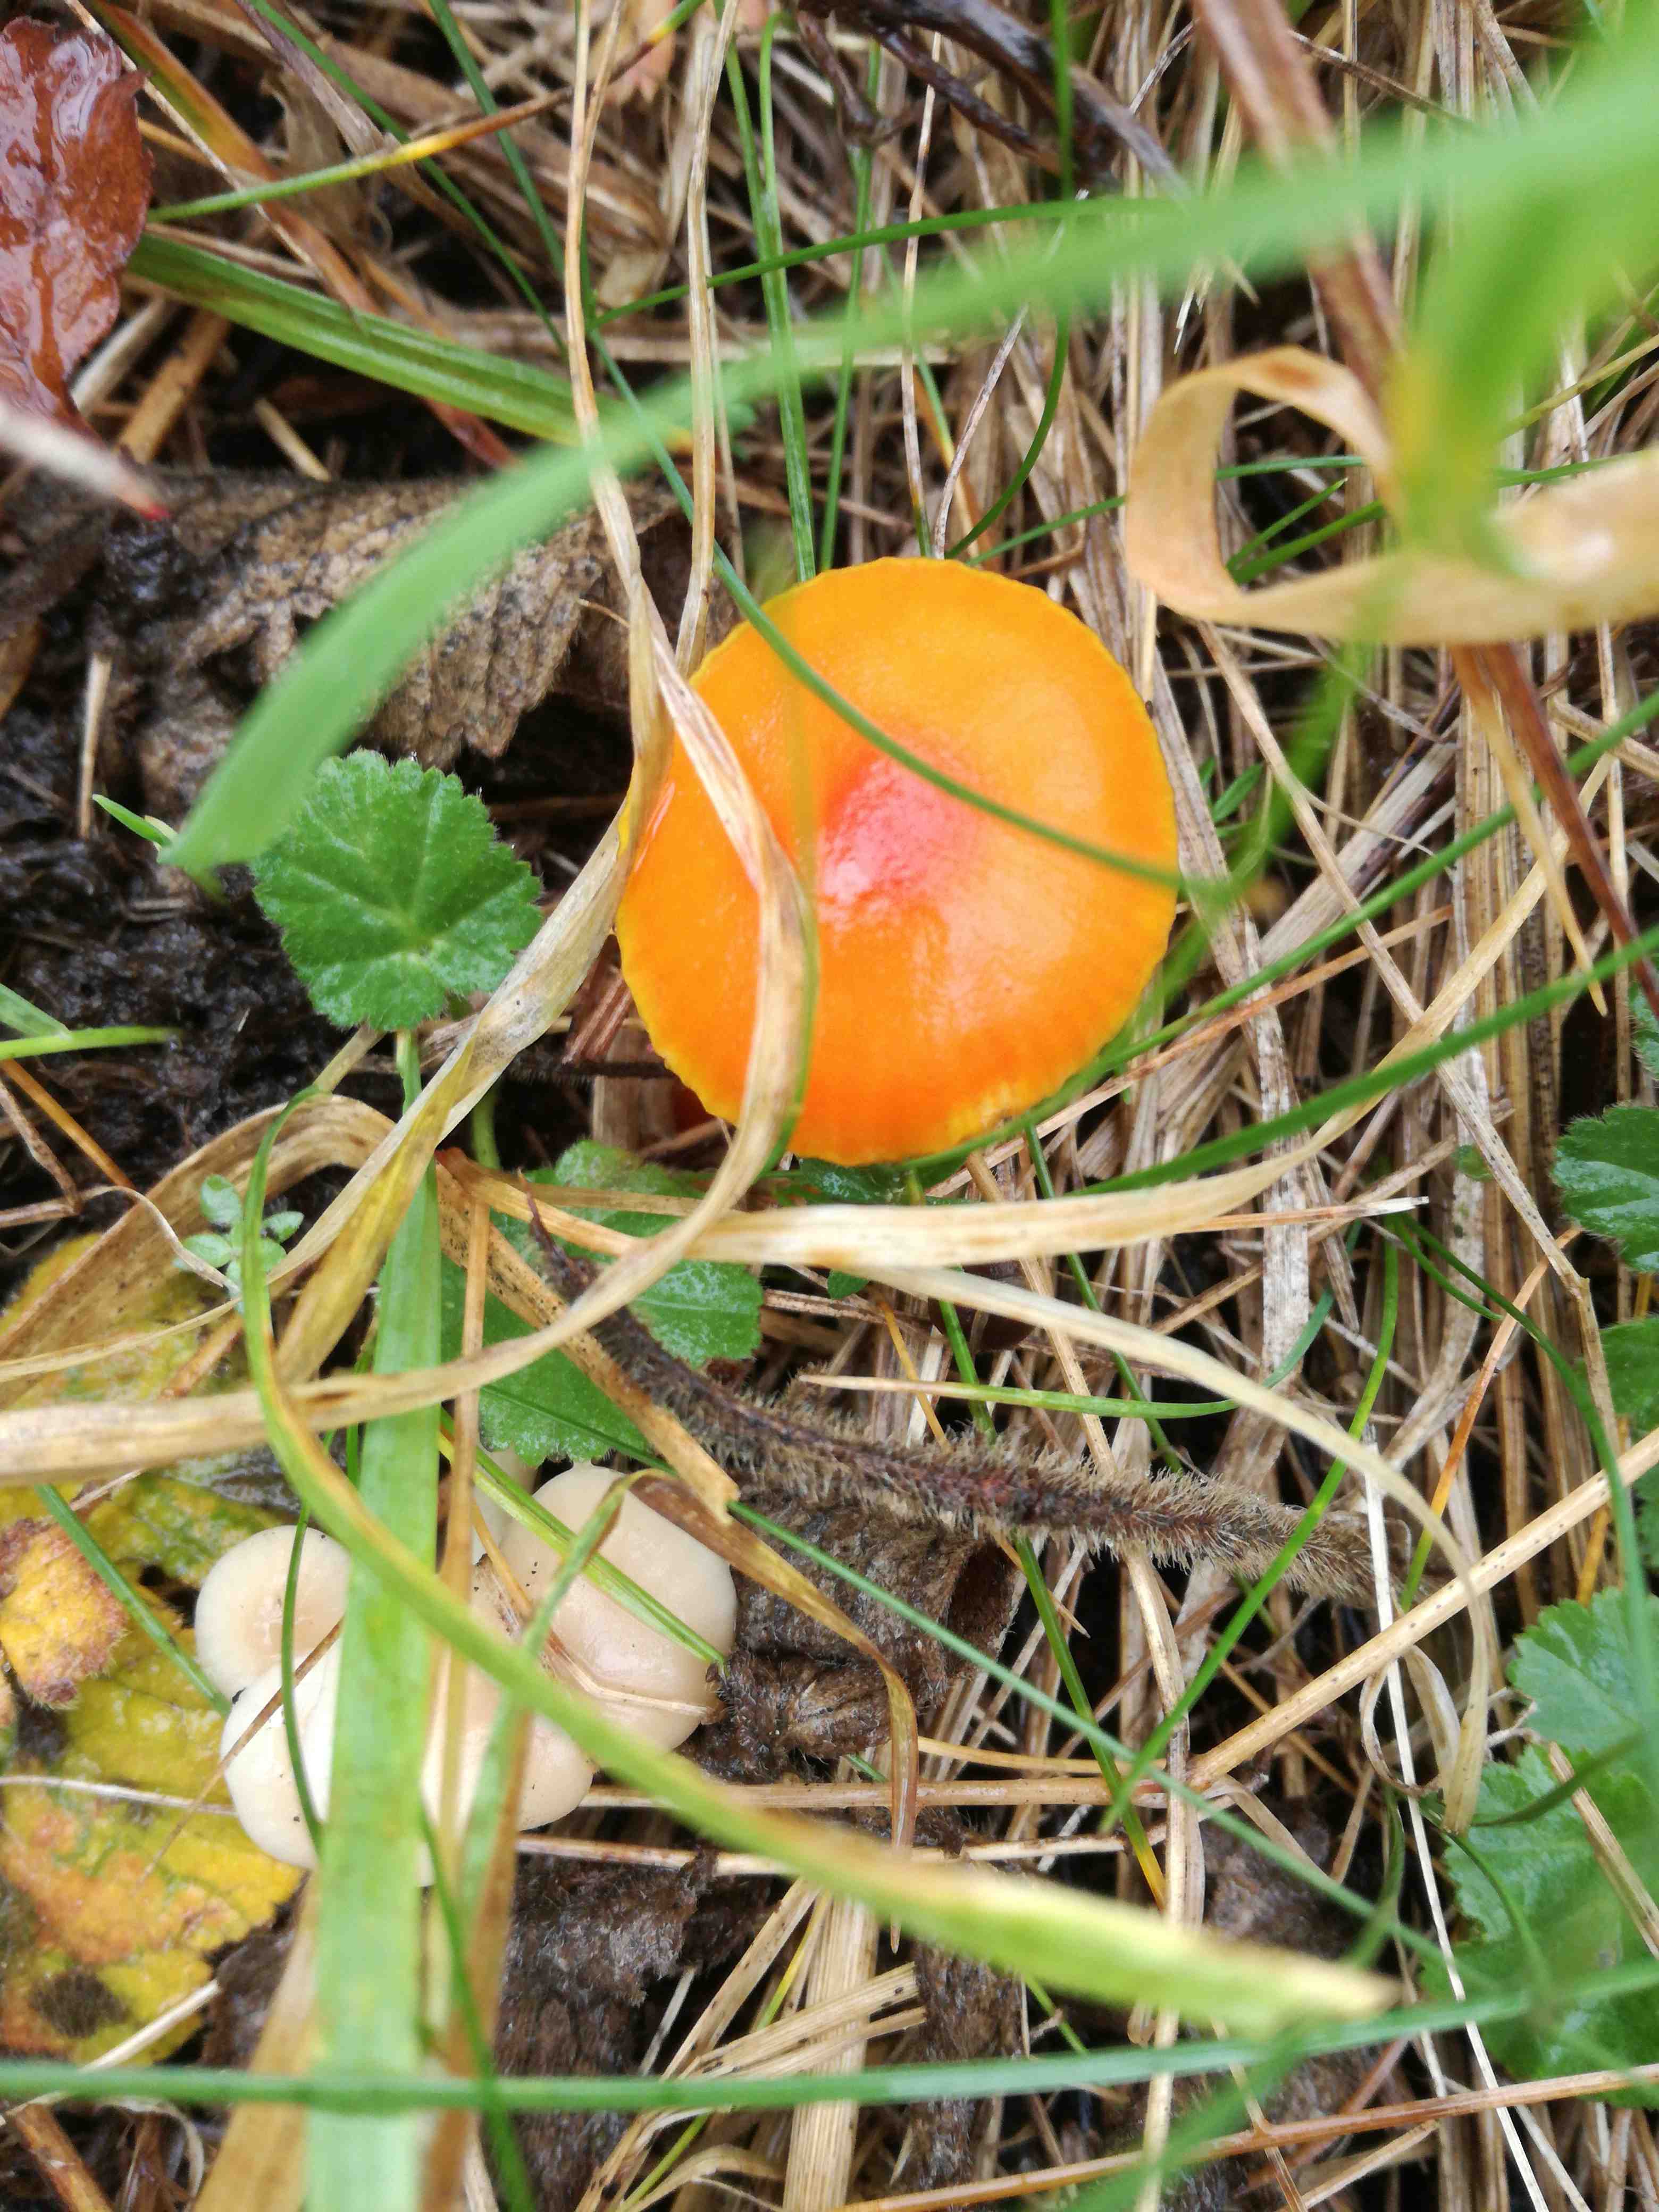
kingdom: Fungi
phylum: Basidiomycota
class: Agaricomycetes
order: Agaricales
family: Hygrophoraceae
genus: Hygrocybe
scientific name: Hygrocybe
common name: vokshat
